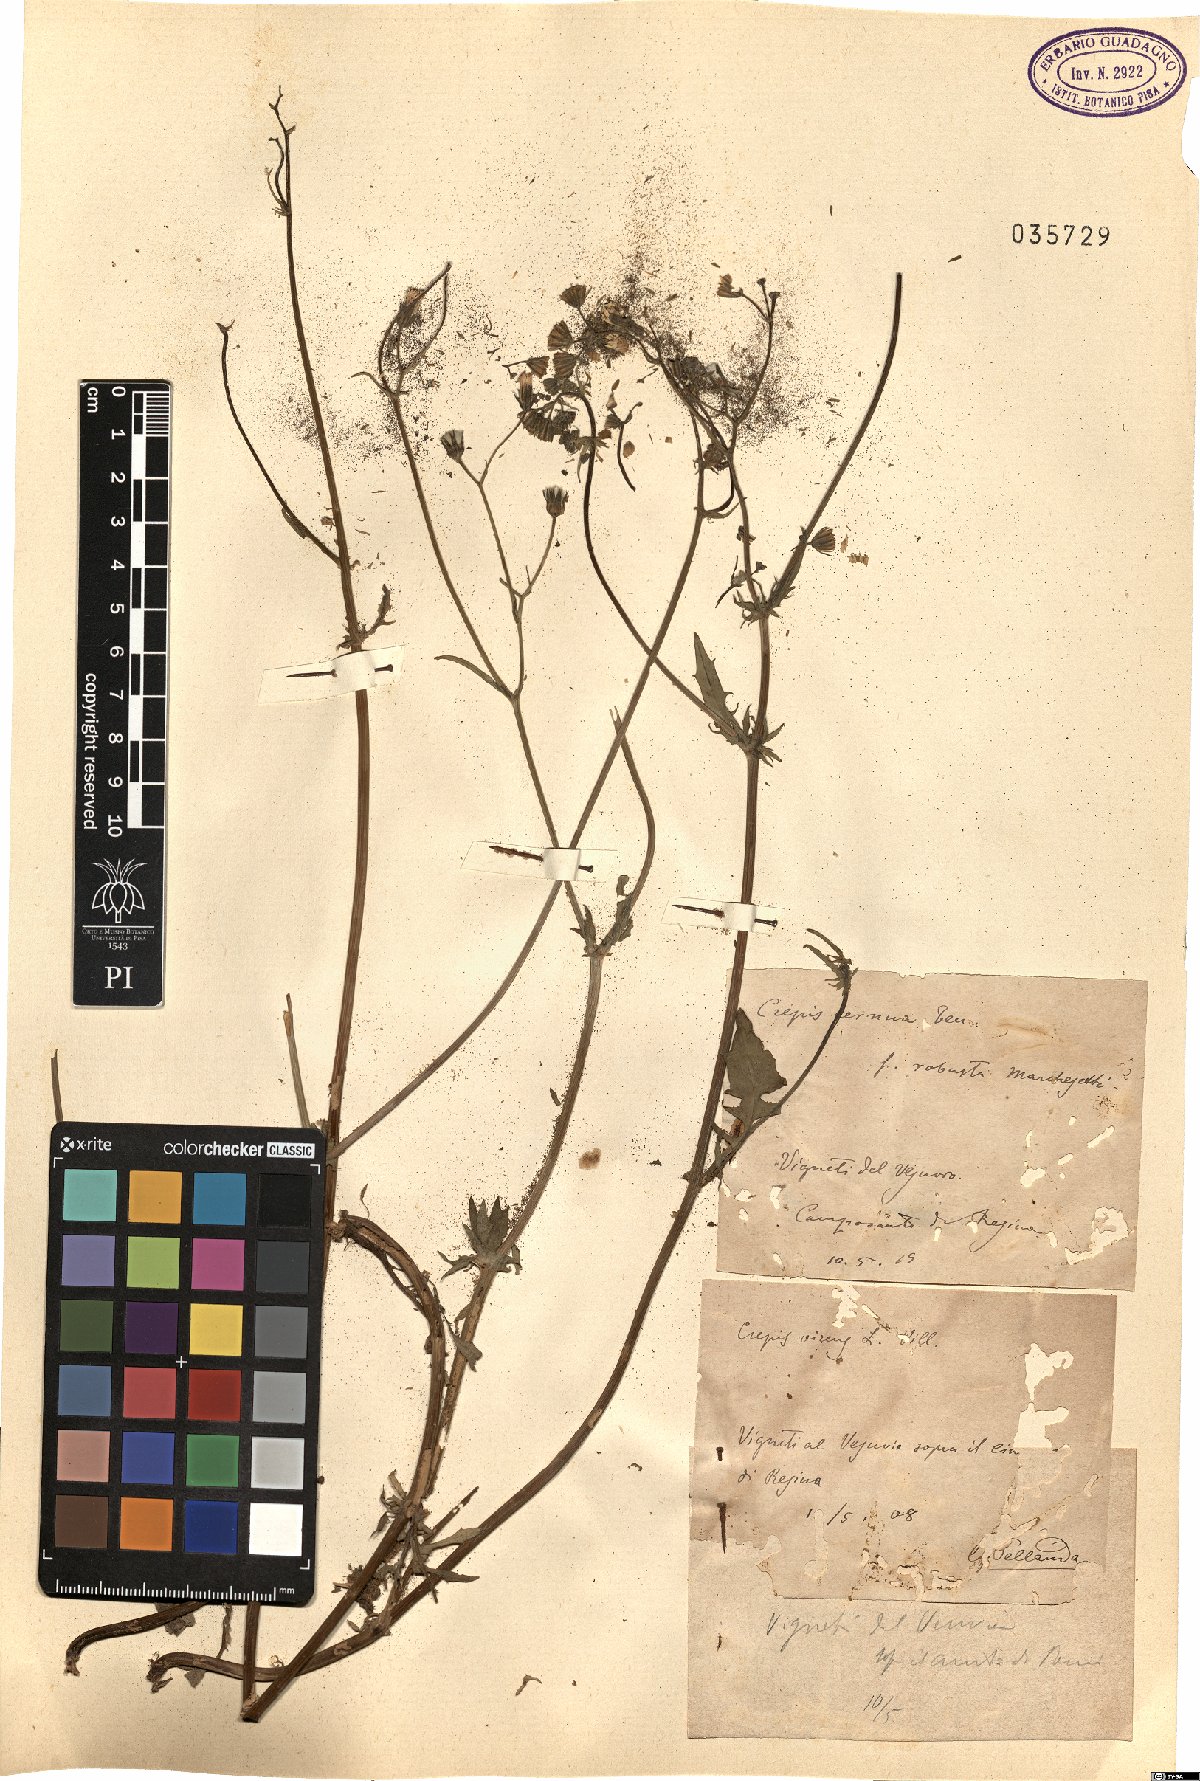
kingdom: Plantae
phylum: Tracheophyta
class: Magnoliopsida
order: Asterales
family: Asteraceae
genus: Crepis
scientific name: Crepis neglecta
